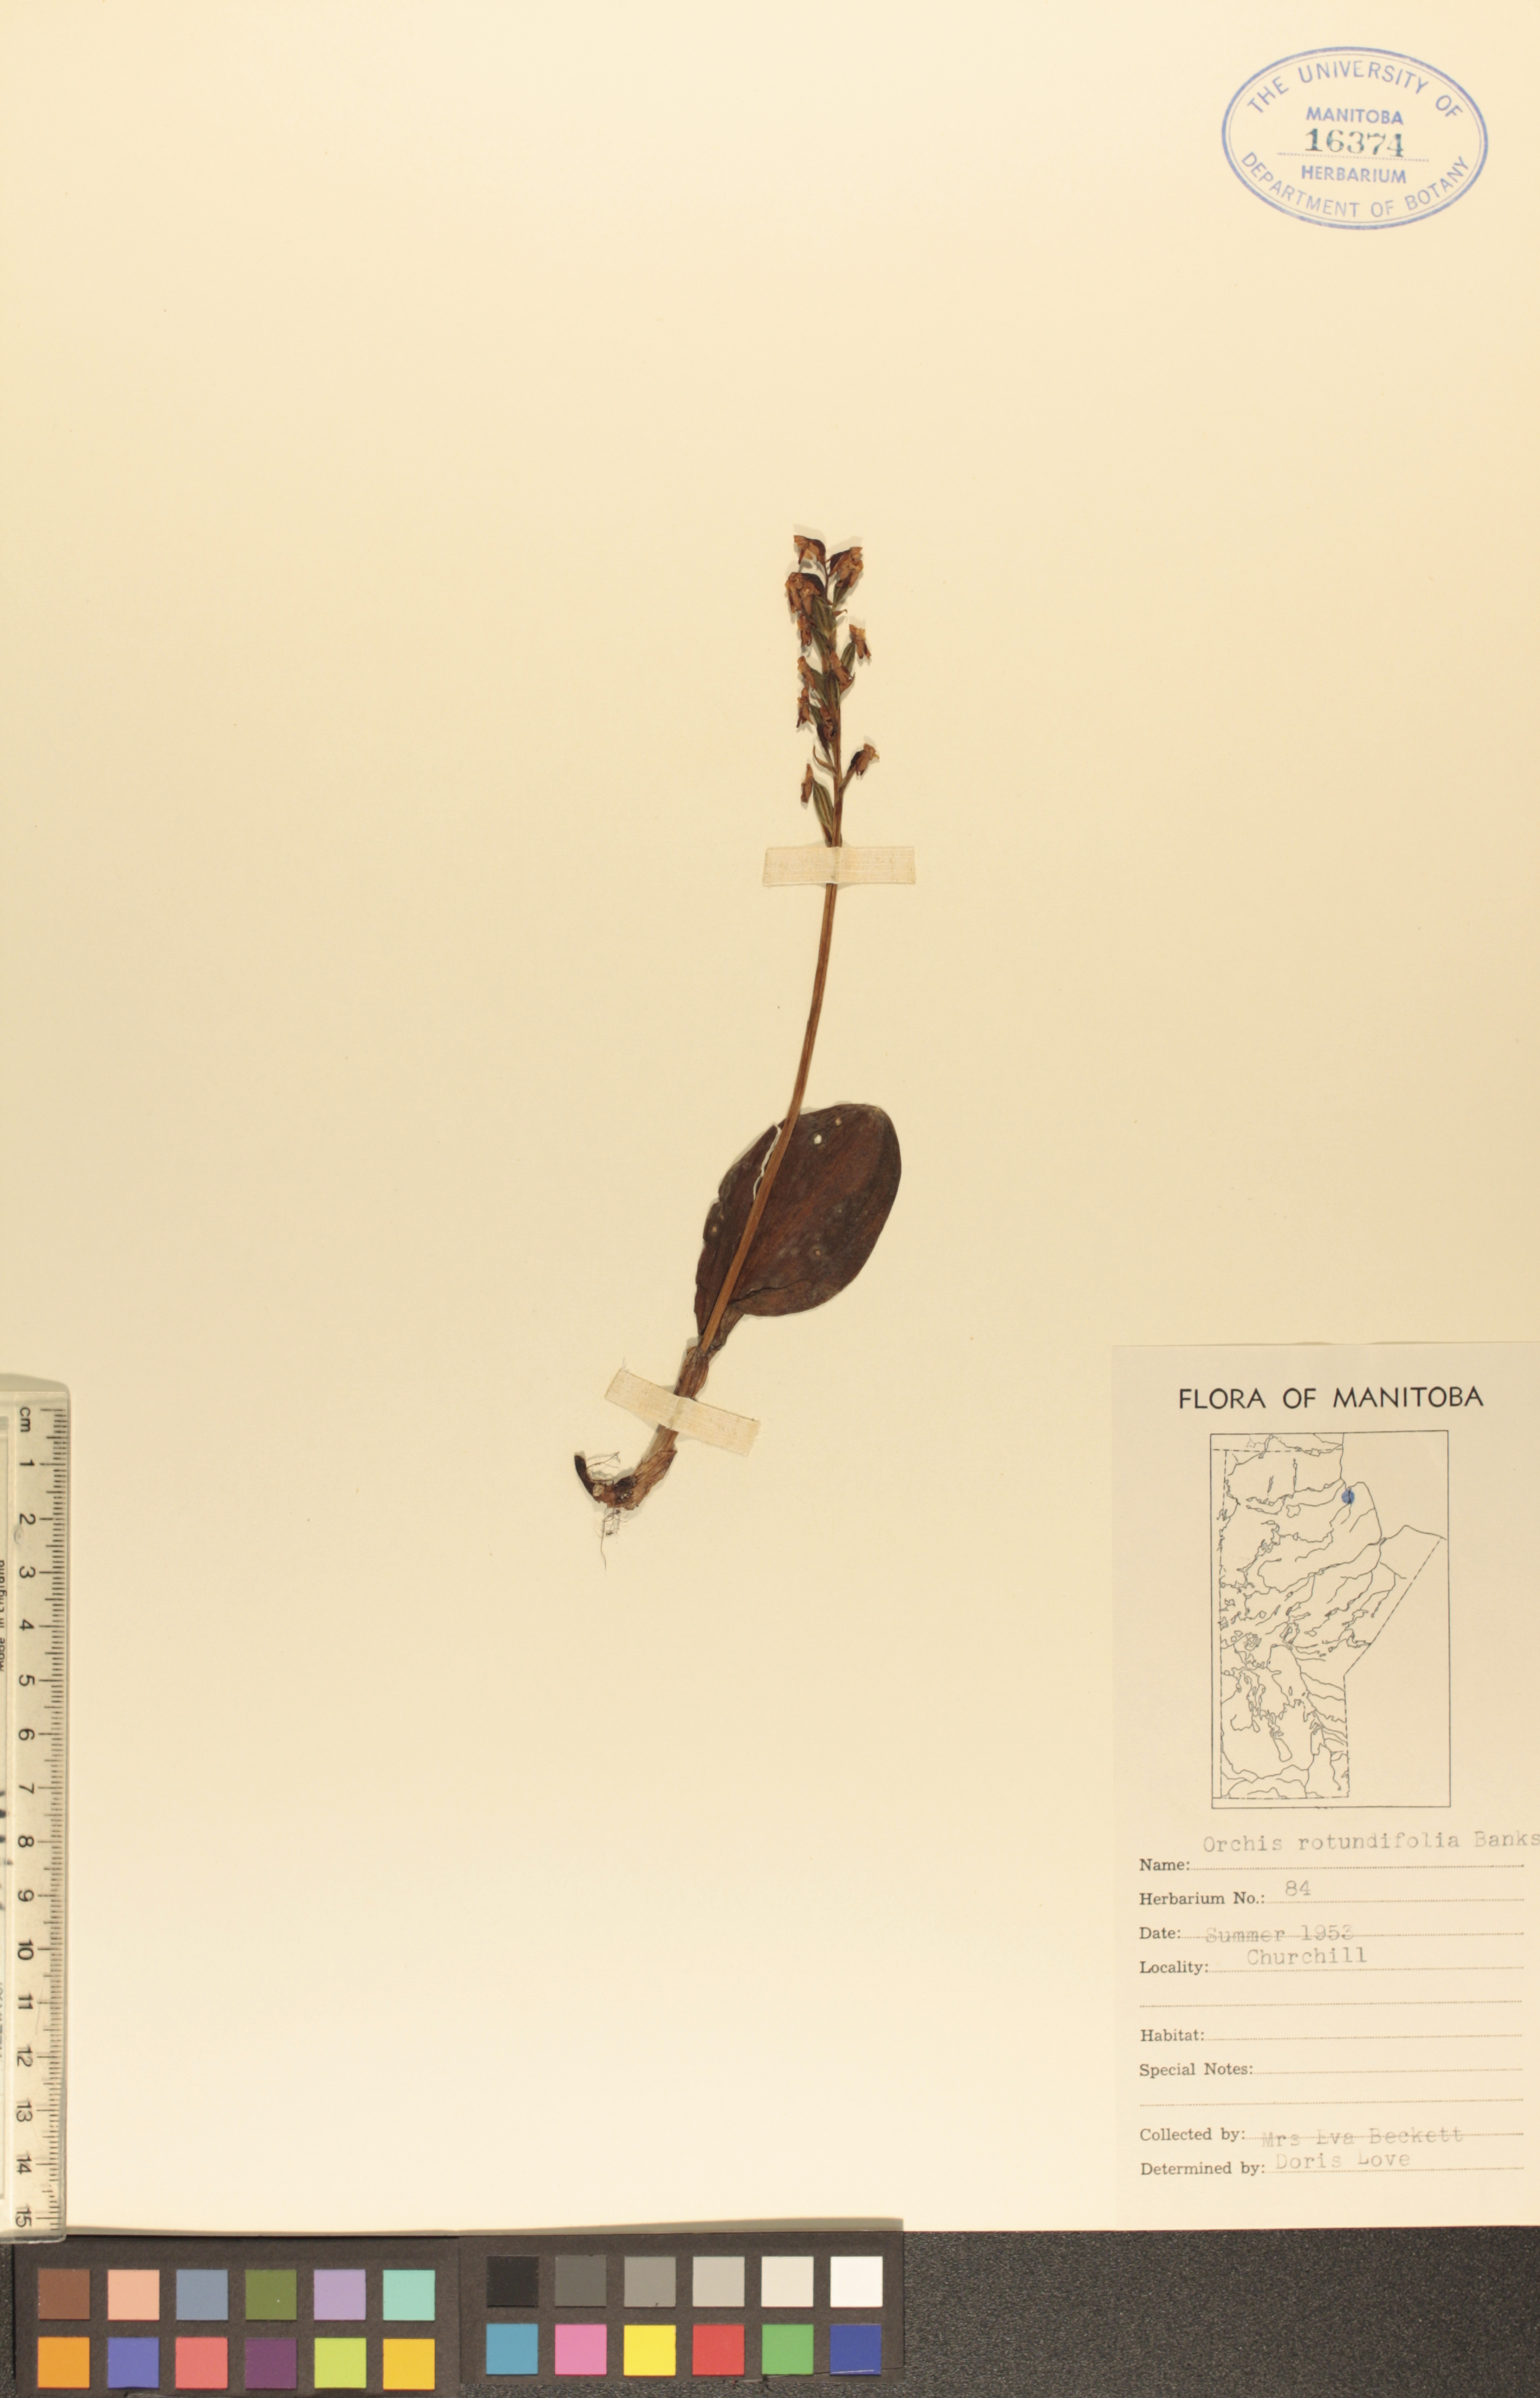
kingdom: Plantae
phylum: Tracheophyta
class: Liliopsida
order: Asparagales
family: Orchidaceae
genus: Galearis
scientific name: Galearis rotundifolia
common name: One-leaved orchis
